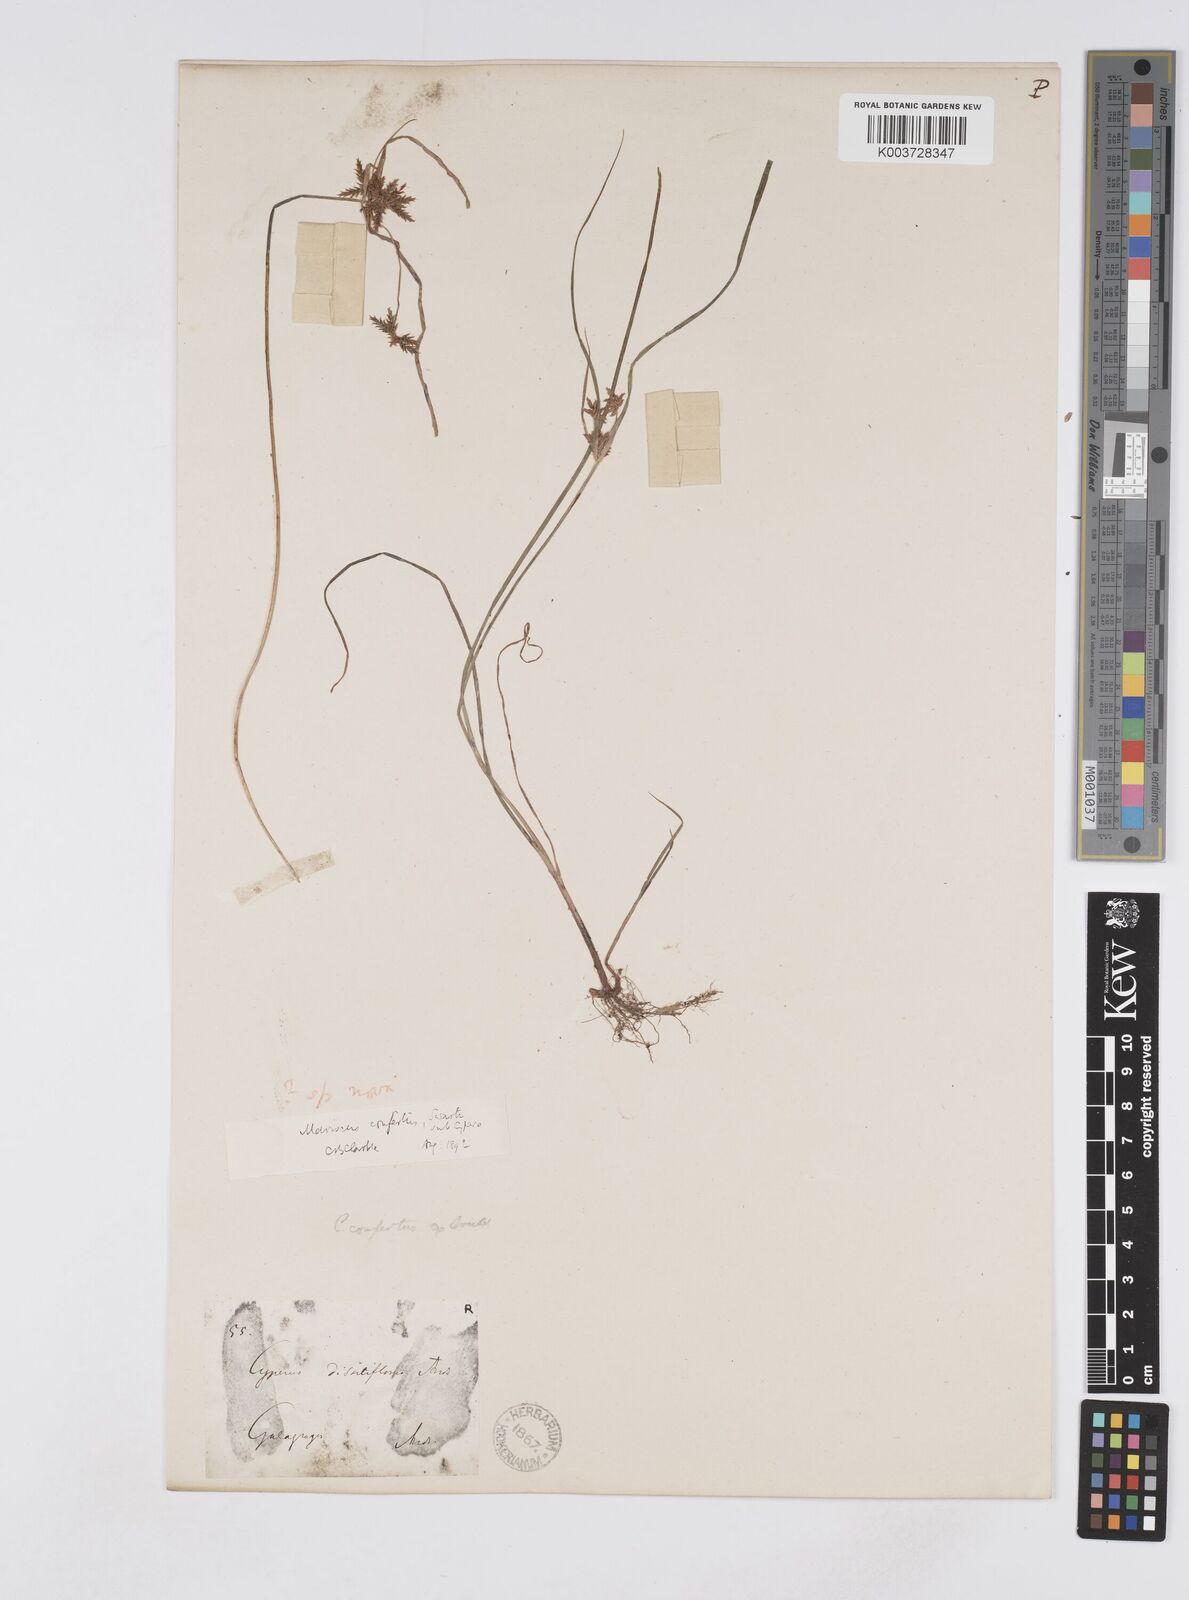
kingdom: Plantae
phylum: Tracheophyta
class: Liliopsida
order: Poales
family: Cyperaceae
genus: Cyperus
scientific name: Cyperus
